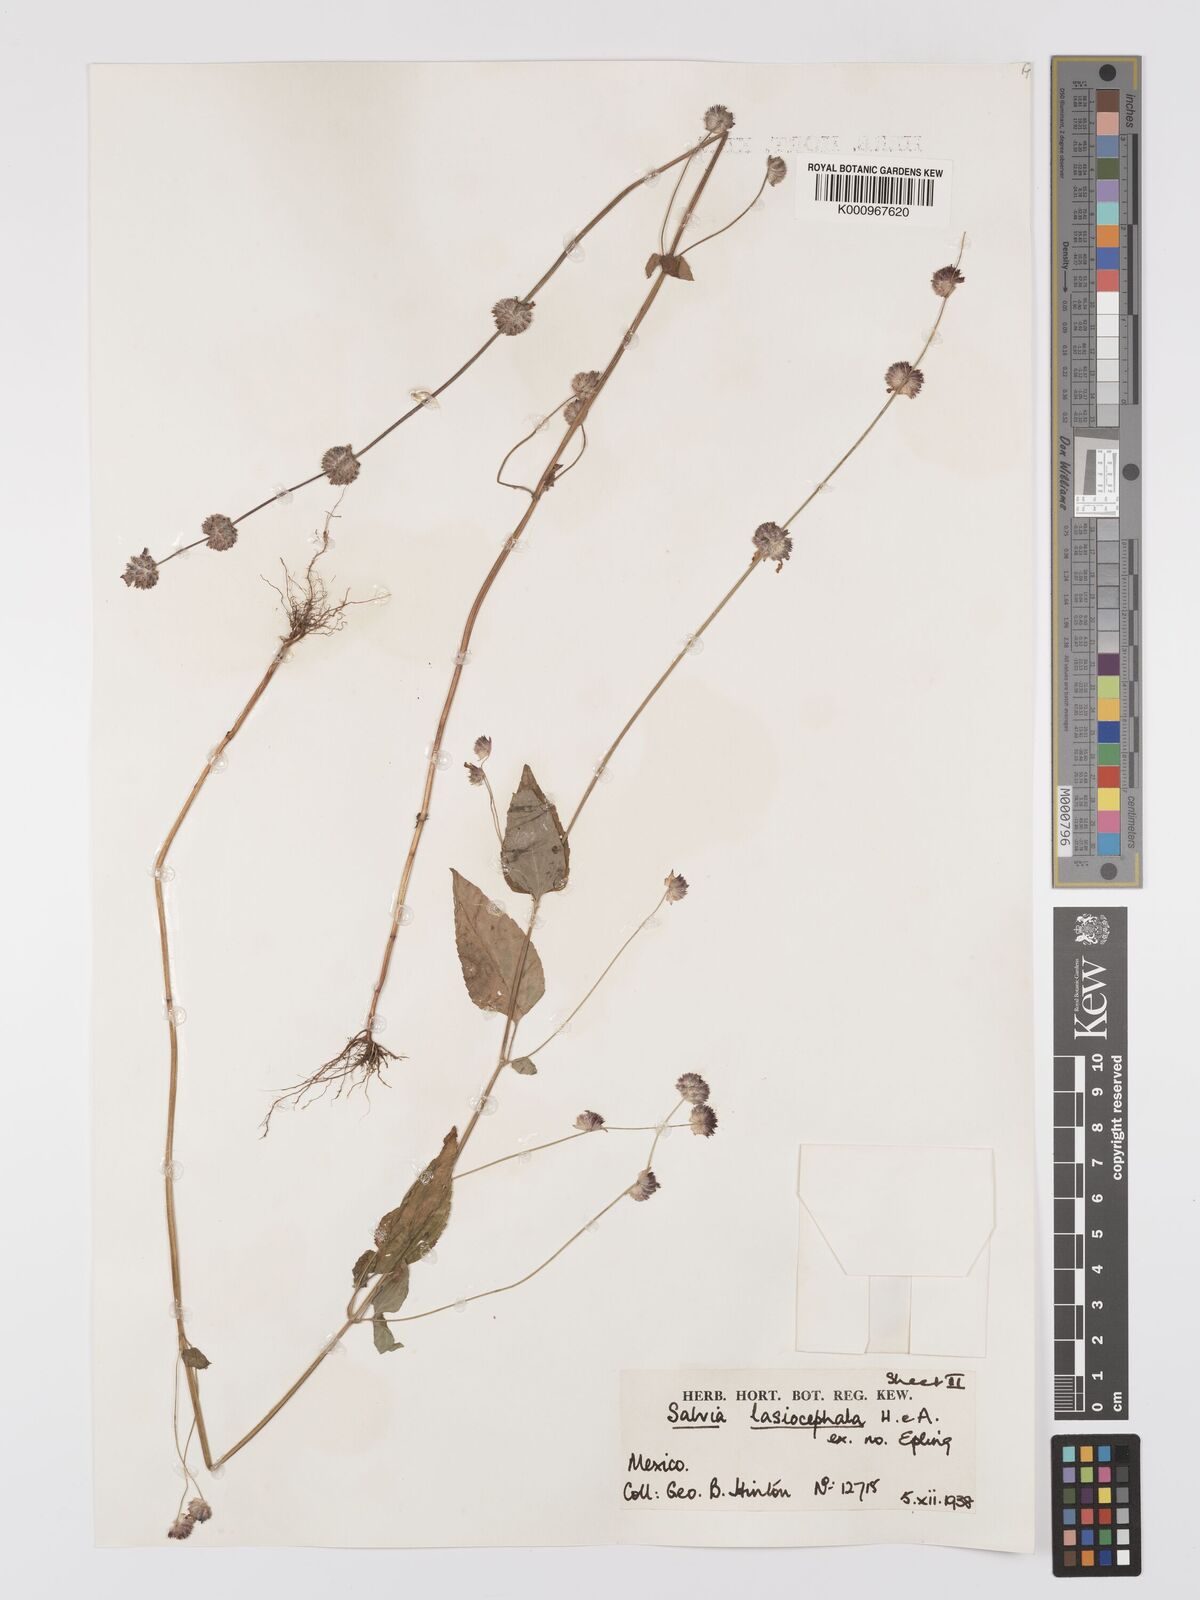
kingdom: Plantae
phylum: Tracheophyta
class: Magnoliopsida
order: Lamiales
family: Lamiaceae
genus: Salvia
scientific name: Salvia lasiocephala
